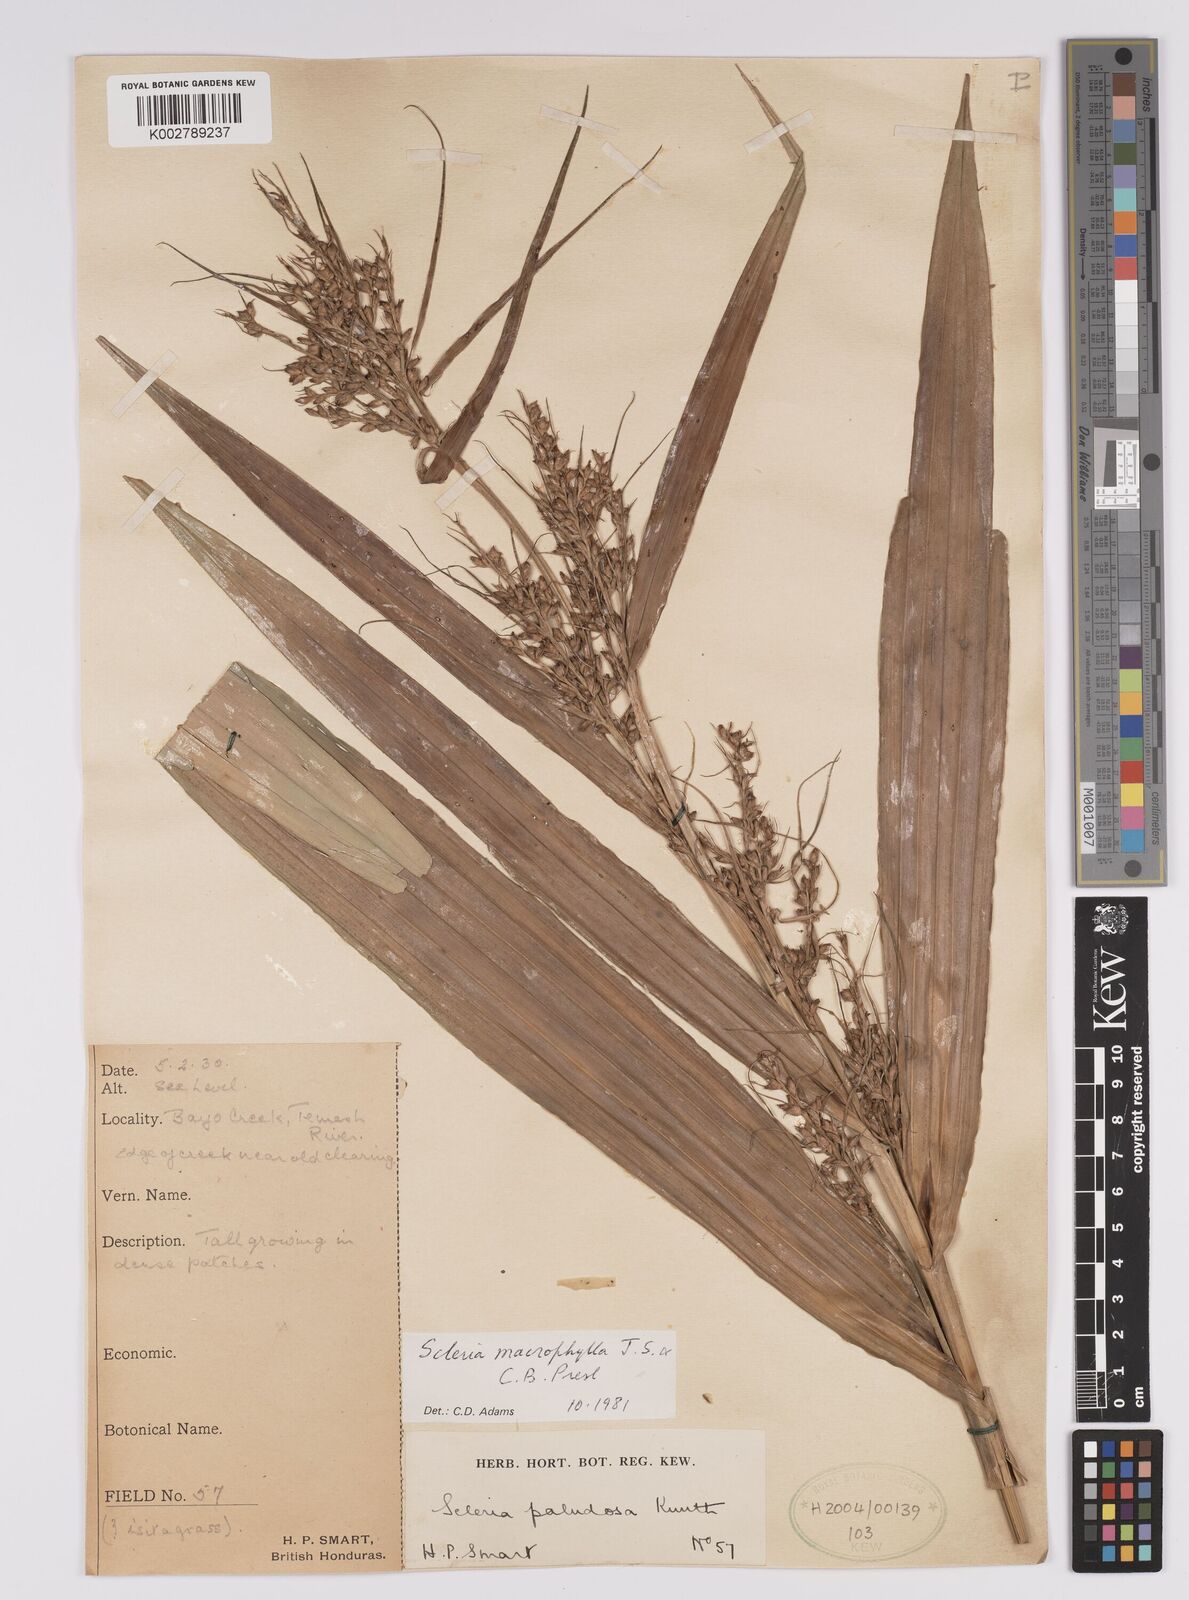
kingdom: Plantae
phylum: Tracheophyta
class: Liliopsida
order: Poales
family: Cyperaceae
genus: Scleria
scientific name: Scleria macrophylla
